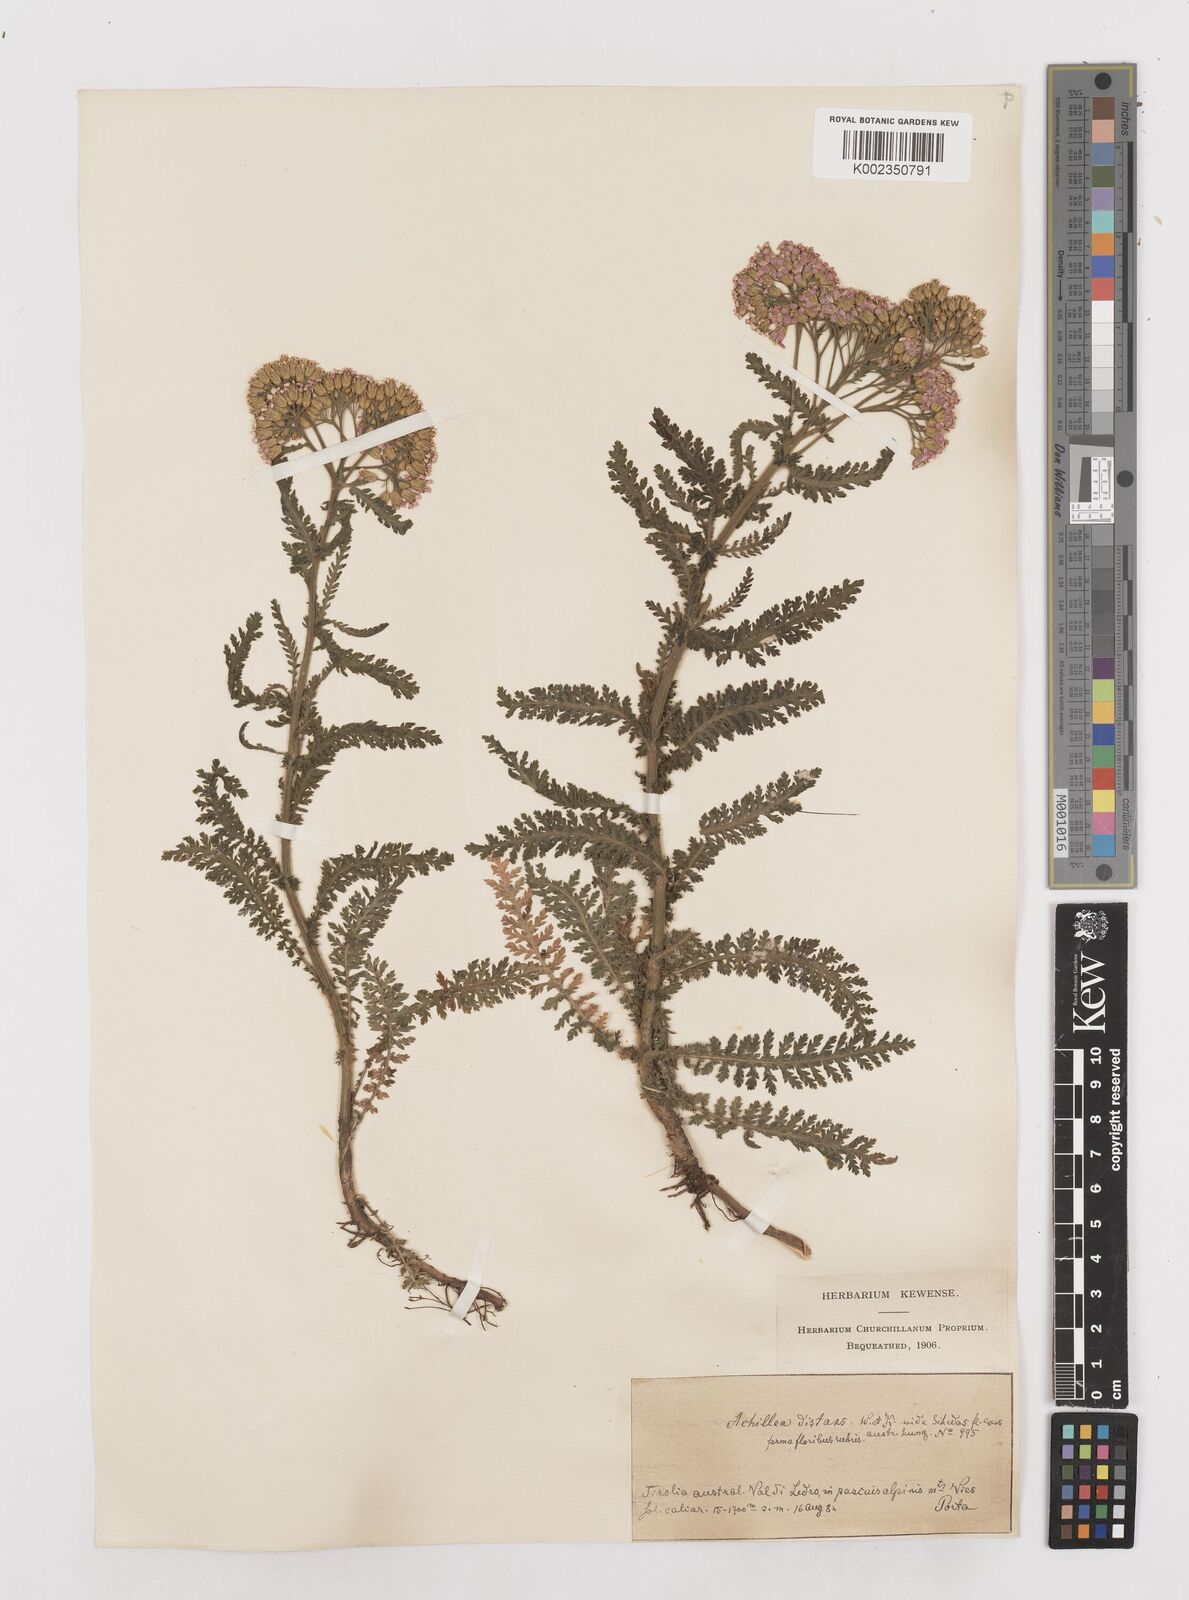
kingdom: Plantae
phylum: Tracheophyta
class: Magnoliopsida
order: Asterales
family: Asteraceae
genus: Achillea
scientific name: Achillea distans
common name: Tall yarrow
